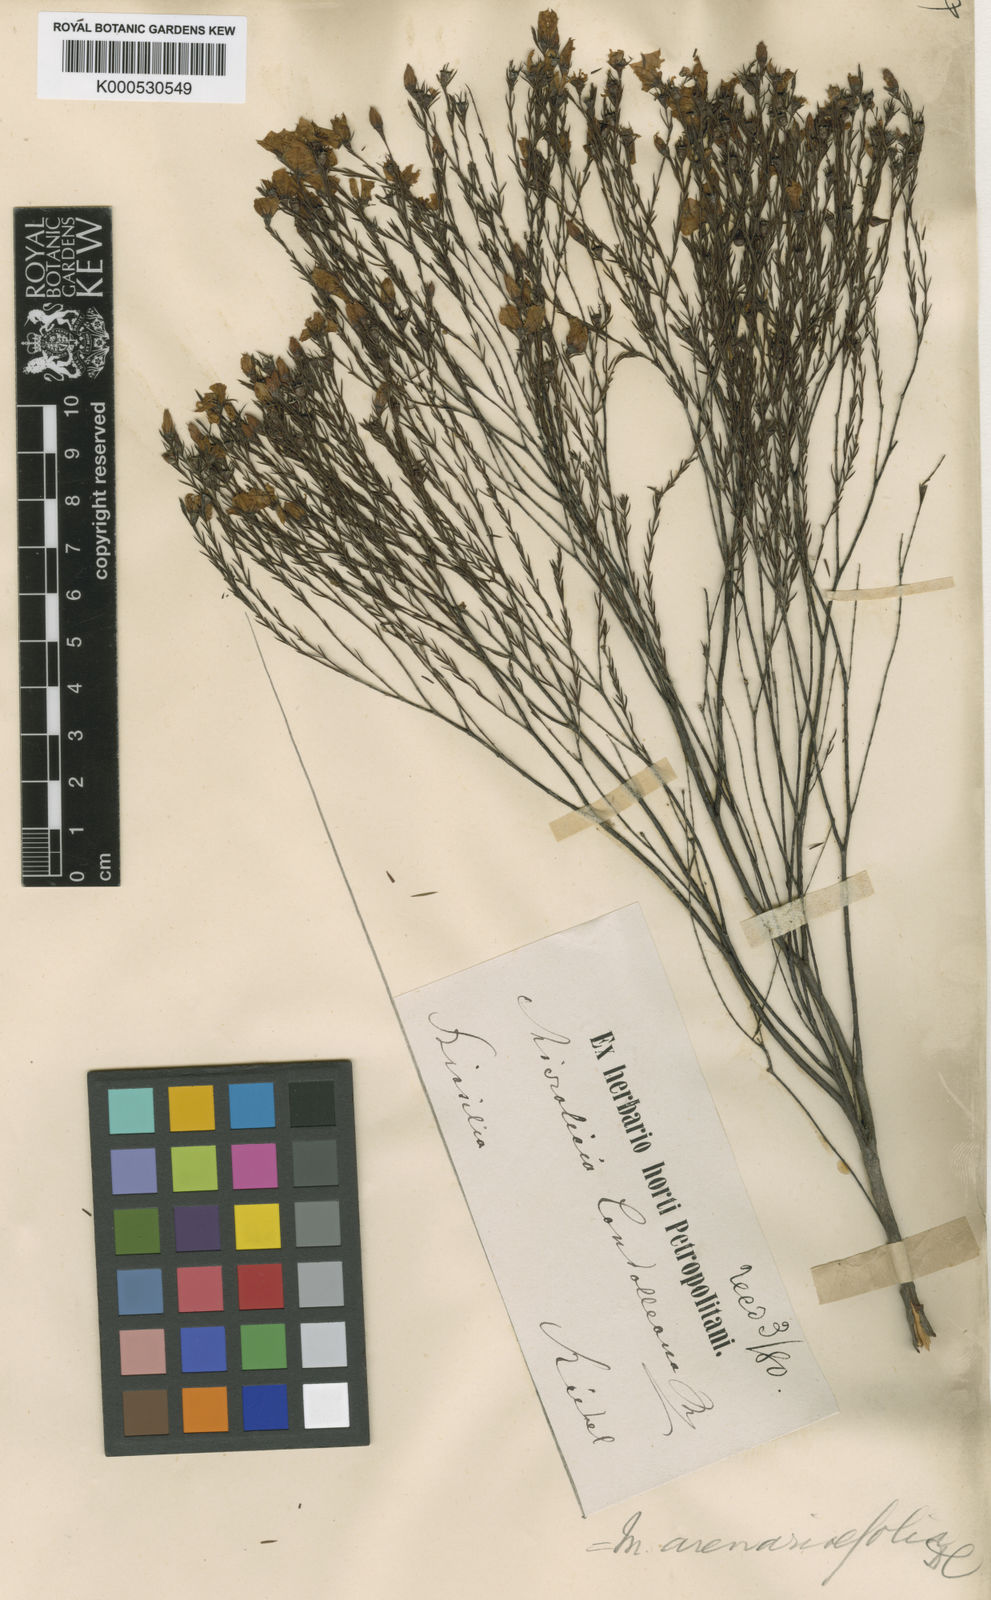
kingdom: Plantae
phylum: Tracheophyta
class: Magnoliopsida
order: Myrtales
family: Melastomataceae
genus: Microlicia
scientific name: Microlicia
